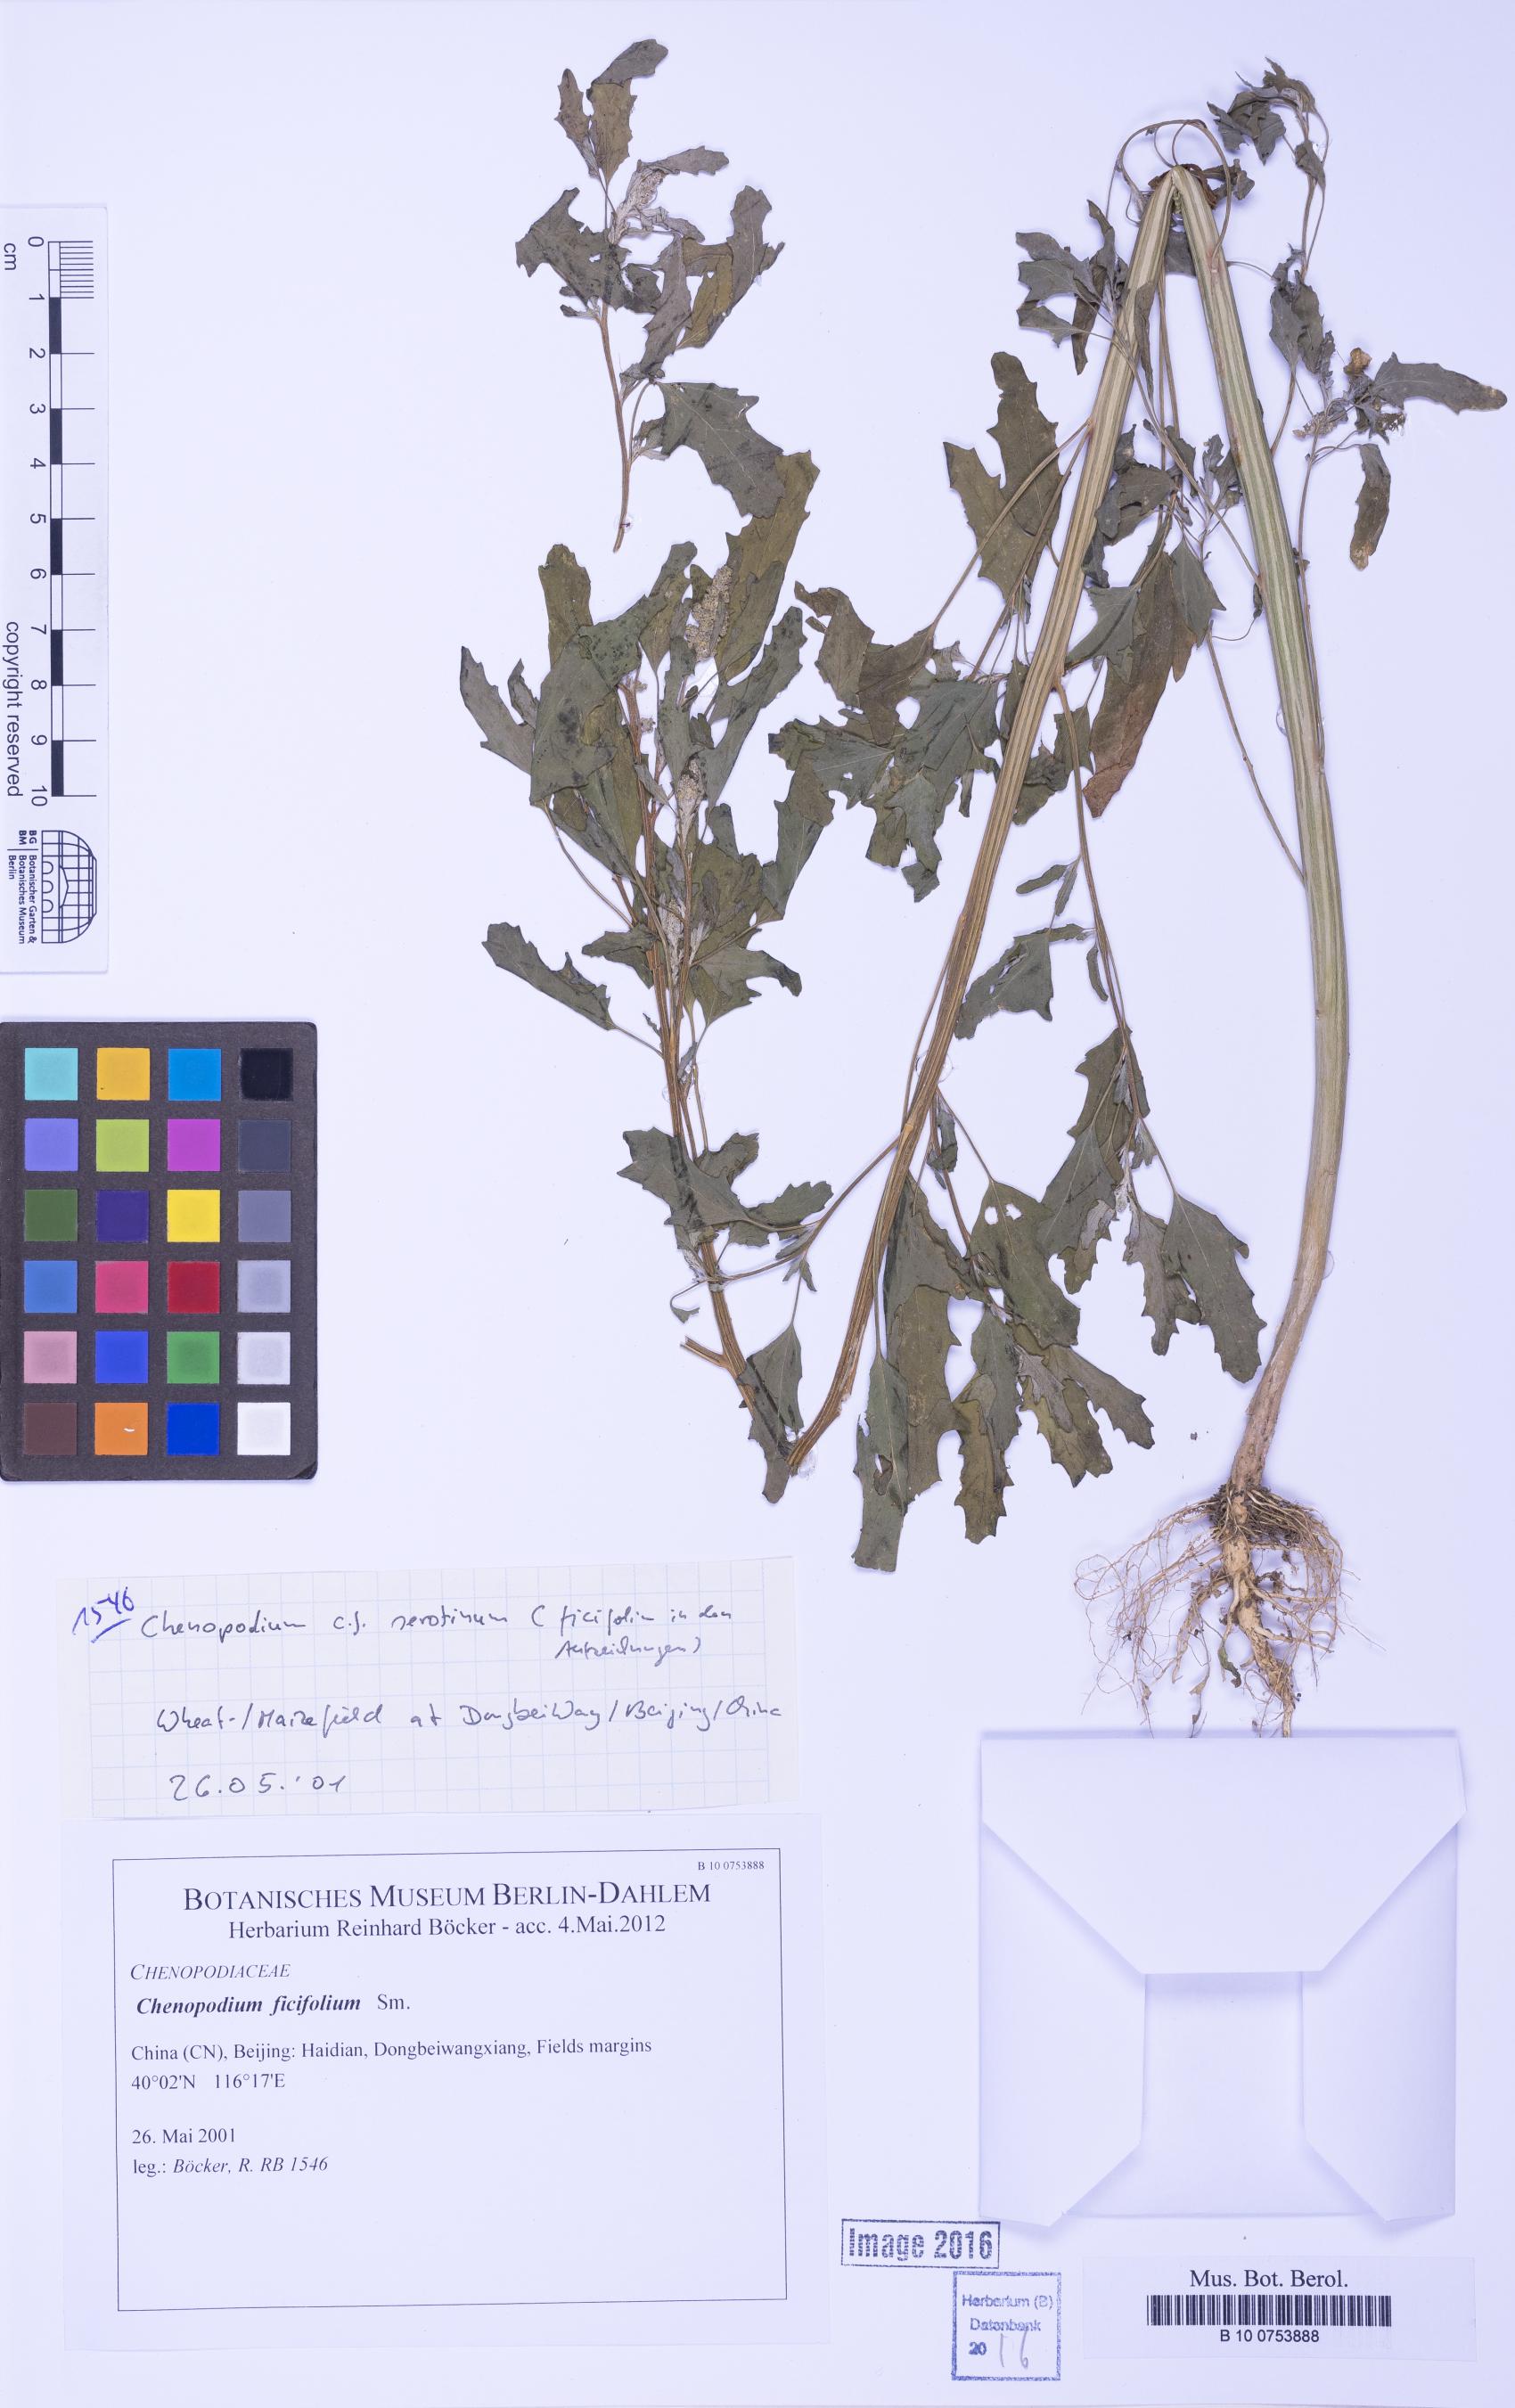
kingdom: Plantae
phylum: Tracheophyta
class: Magnoliopsida
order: Caryophyllales
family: Amaranthaceae
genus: Chenopodium
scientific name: Chenopodium ficifolium
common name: Fig-leaved goosefoot
